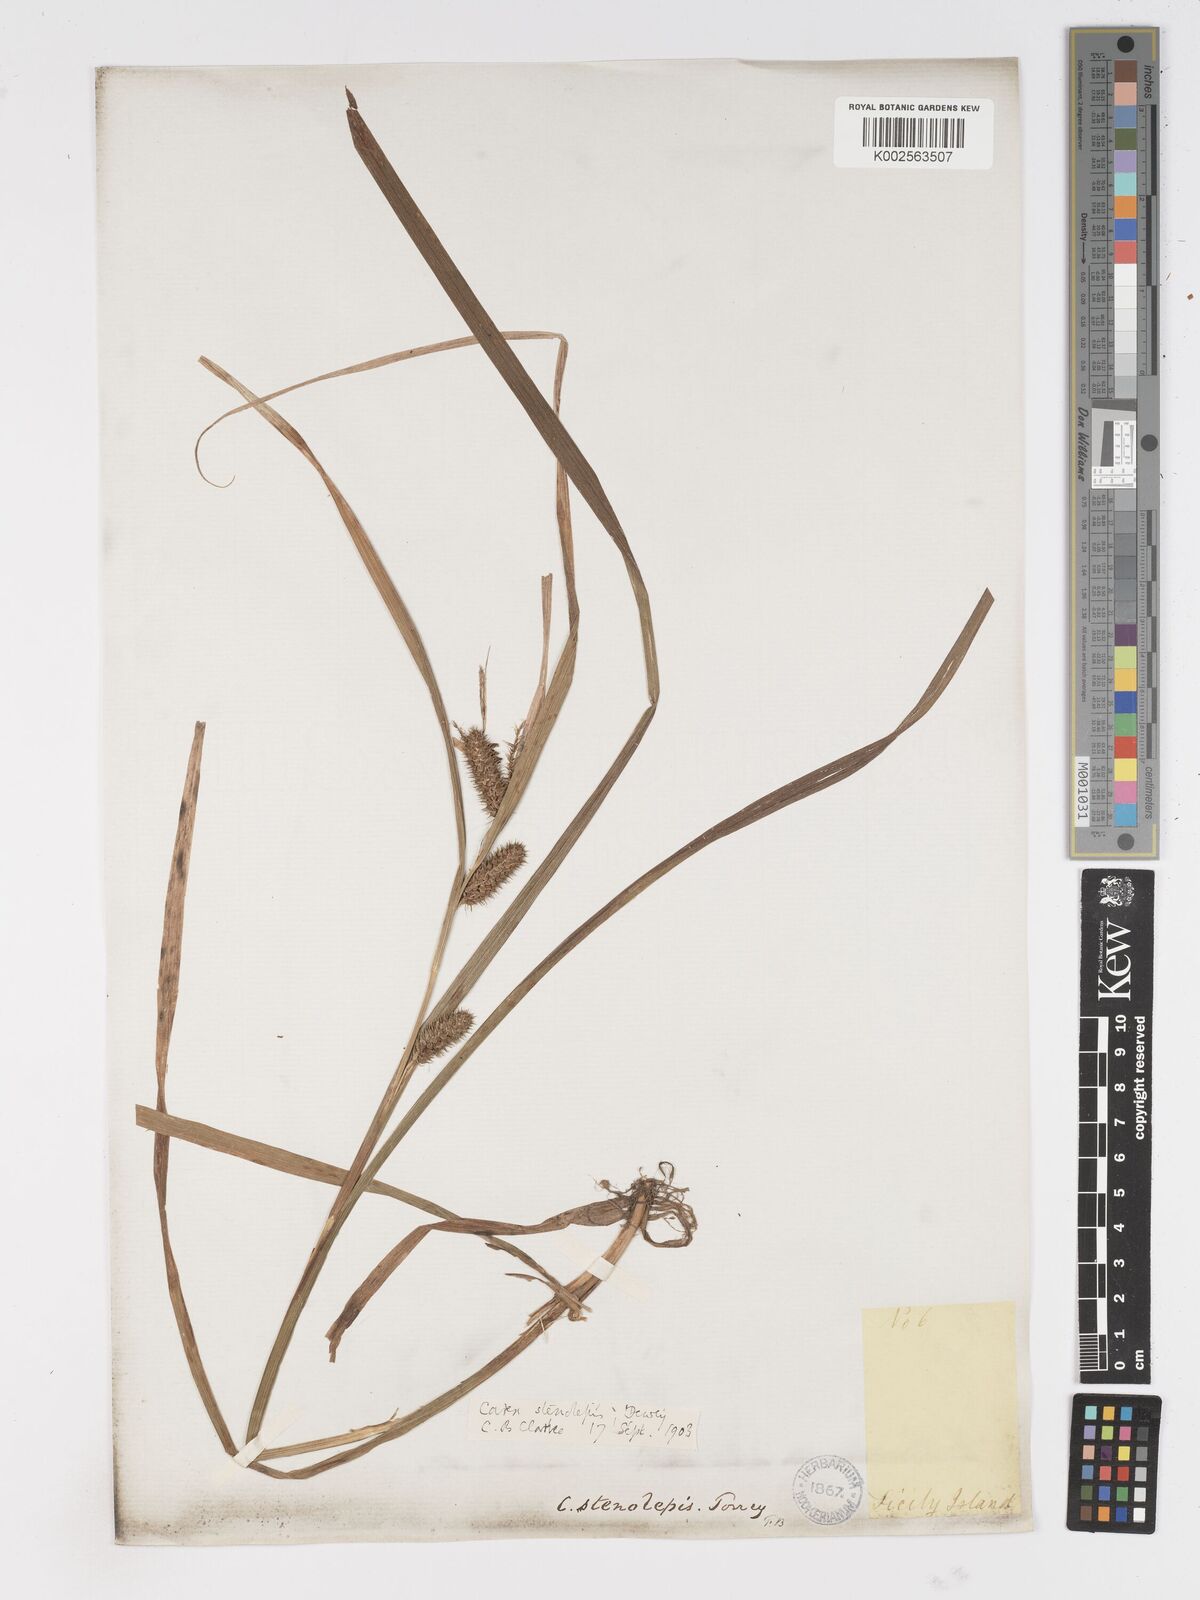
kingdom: Plantae
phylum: Tracheophyta
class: Liliopsida
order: Poales
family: Cyperaceae
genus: Carex
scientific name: Carex frankii
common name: Frank's sedge
